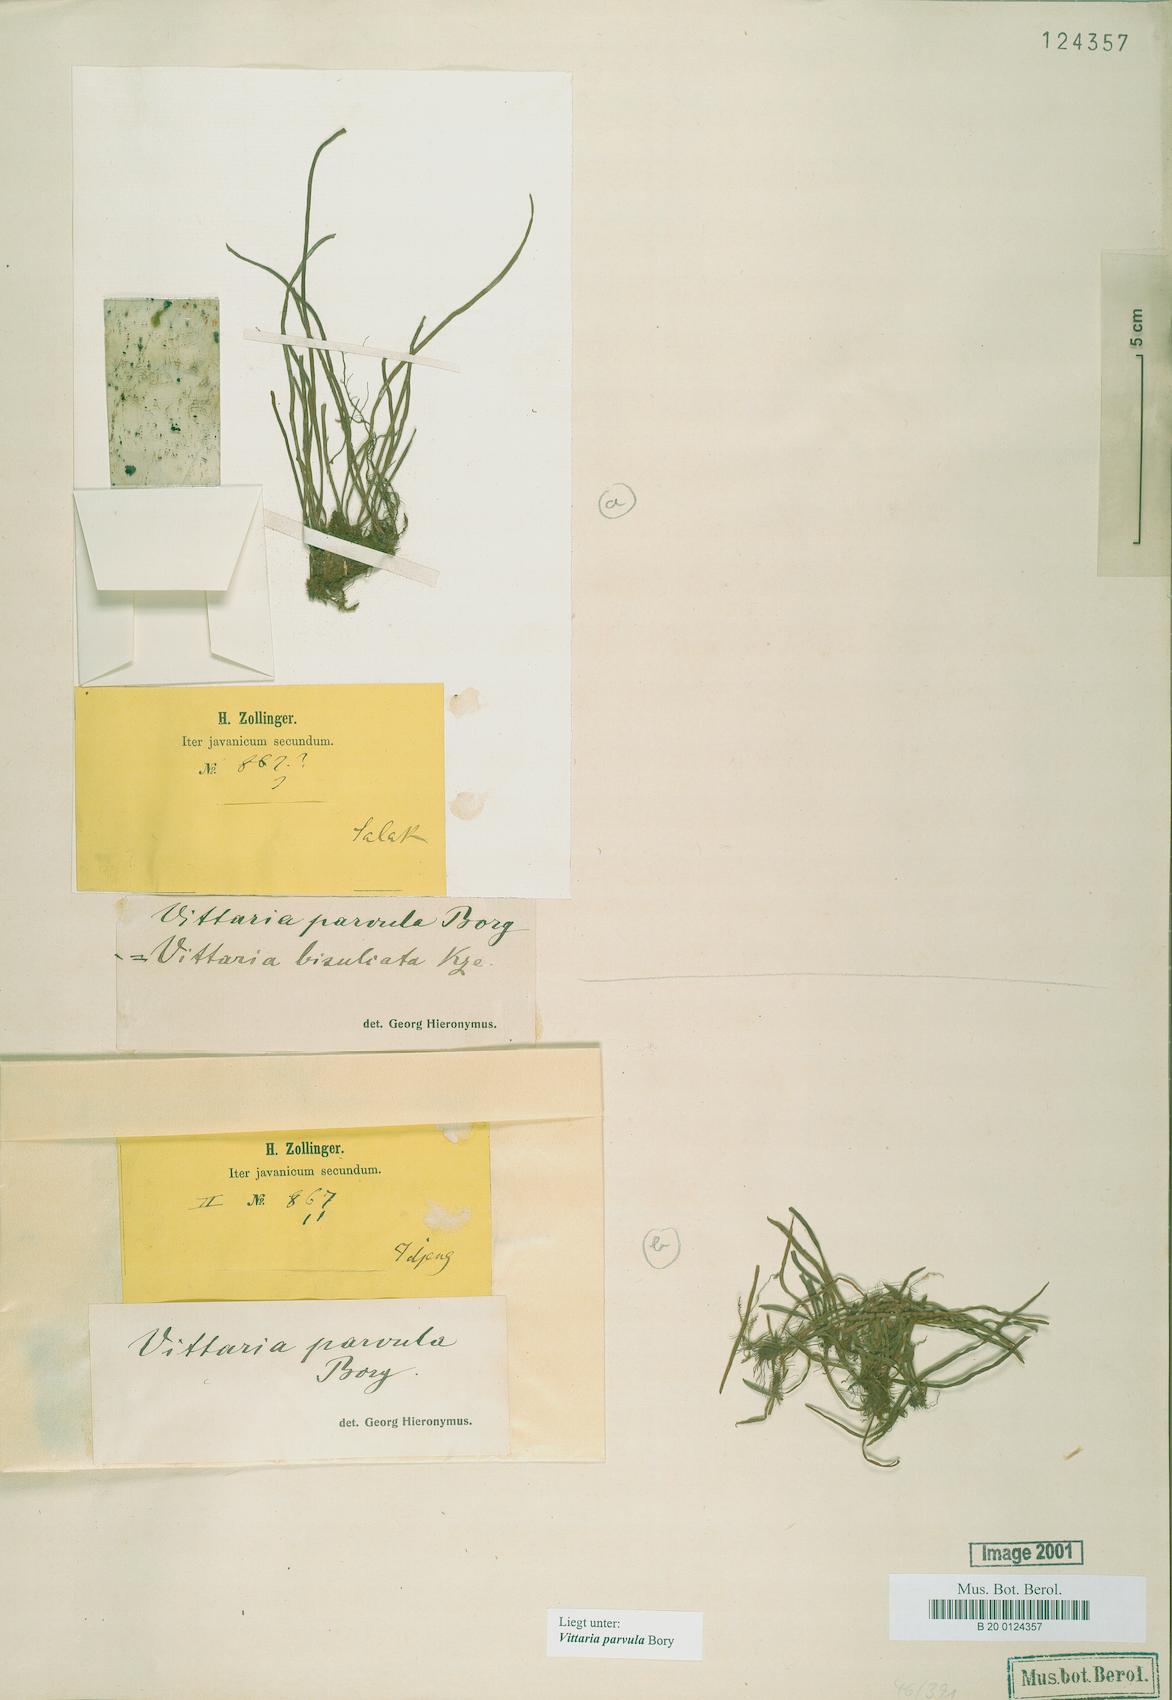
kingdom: Plantae
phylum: Tracheophyta
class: Polypodiopsida
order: Polypodiales
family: Pteridaceae
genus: Haplopteris
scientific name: Haplopteris elongata
